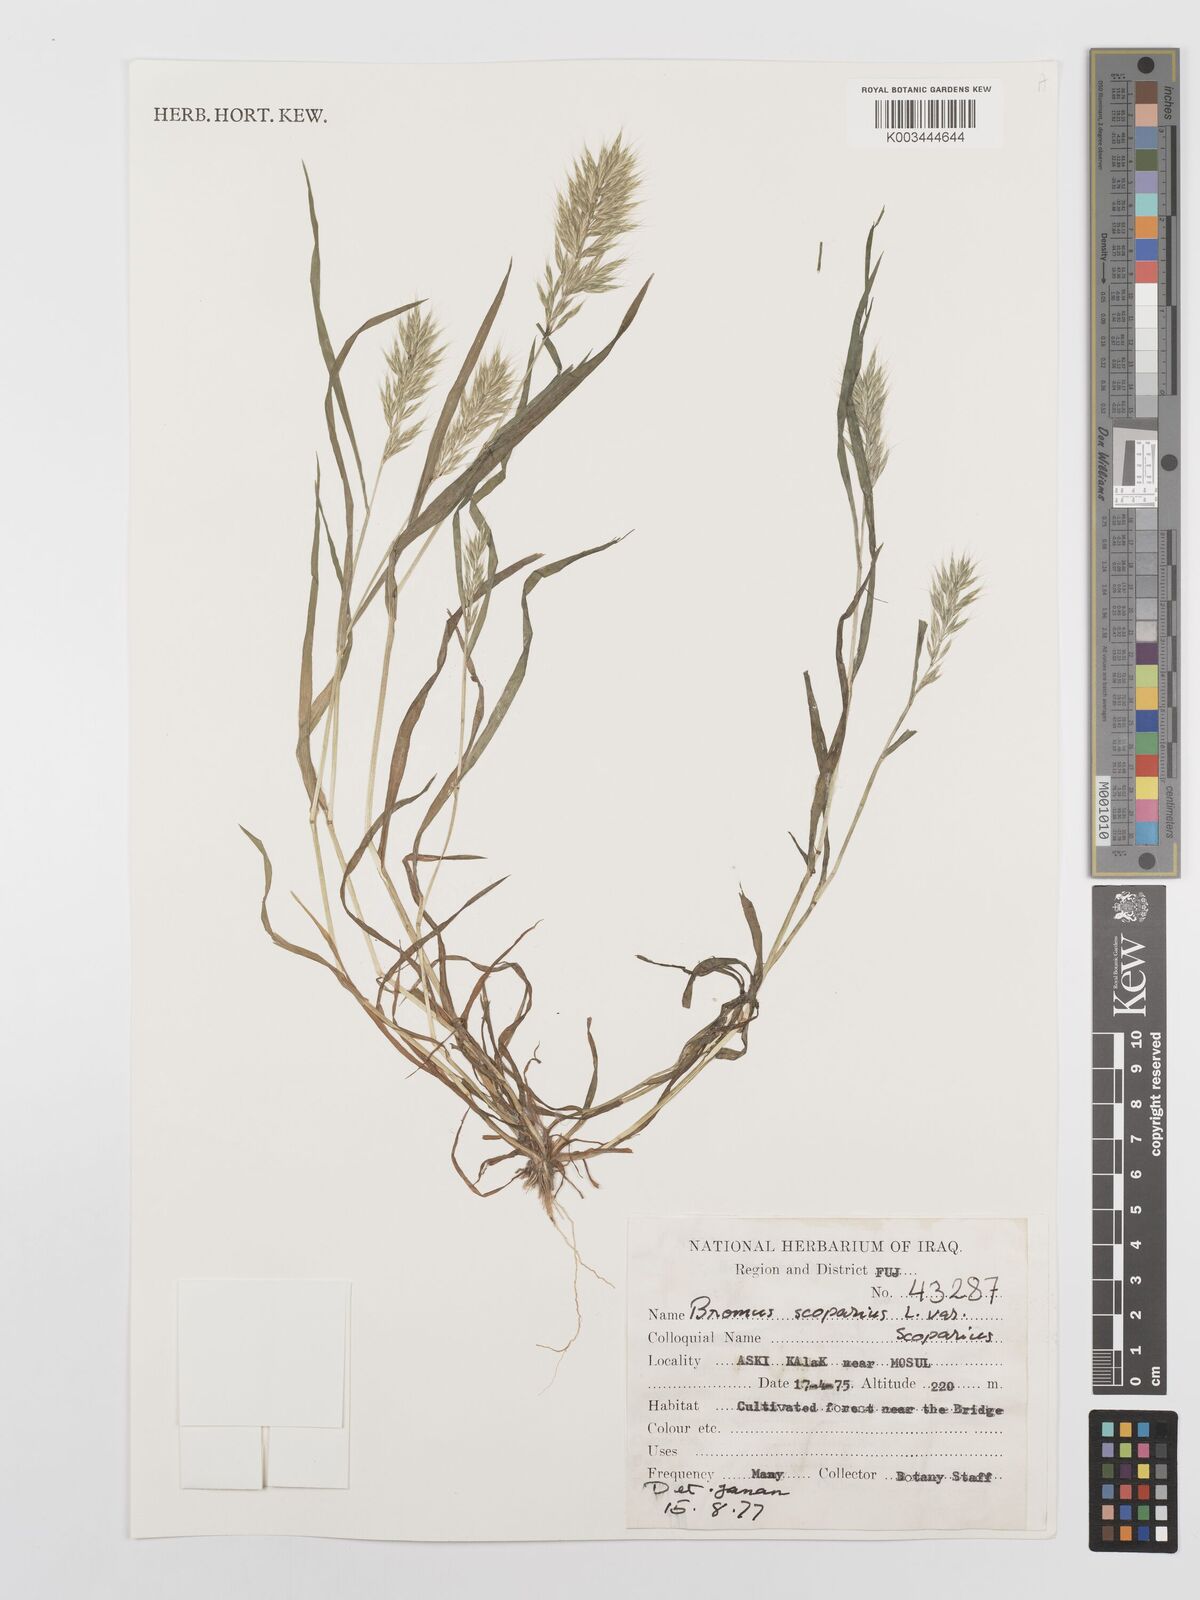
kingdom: Plantae
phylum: Tracheophyta
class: Liliopsida
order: Poales
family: Poaceae
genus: Bromus
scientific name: Bromus scoparius
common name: Broom brome
